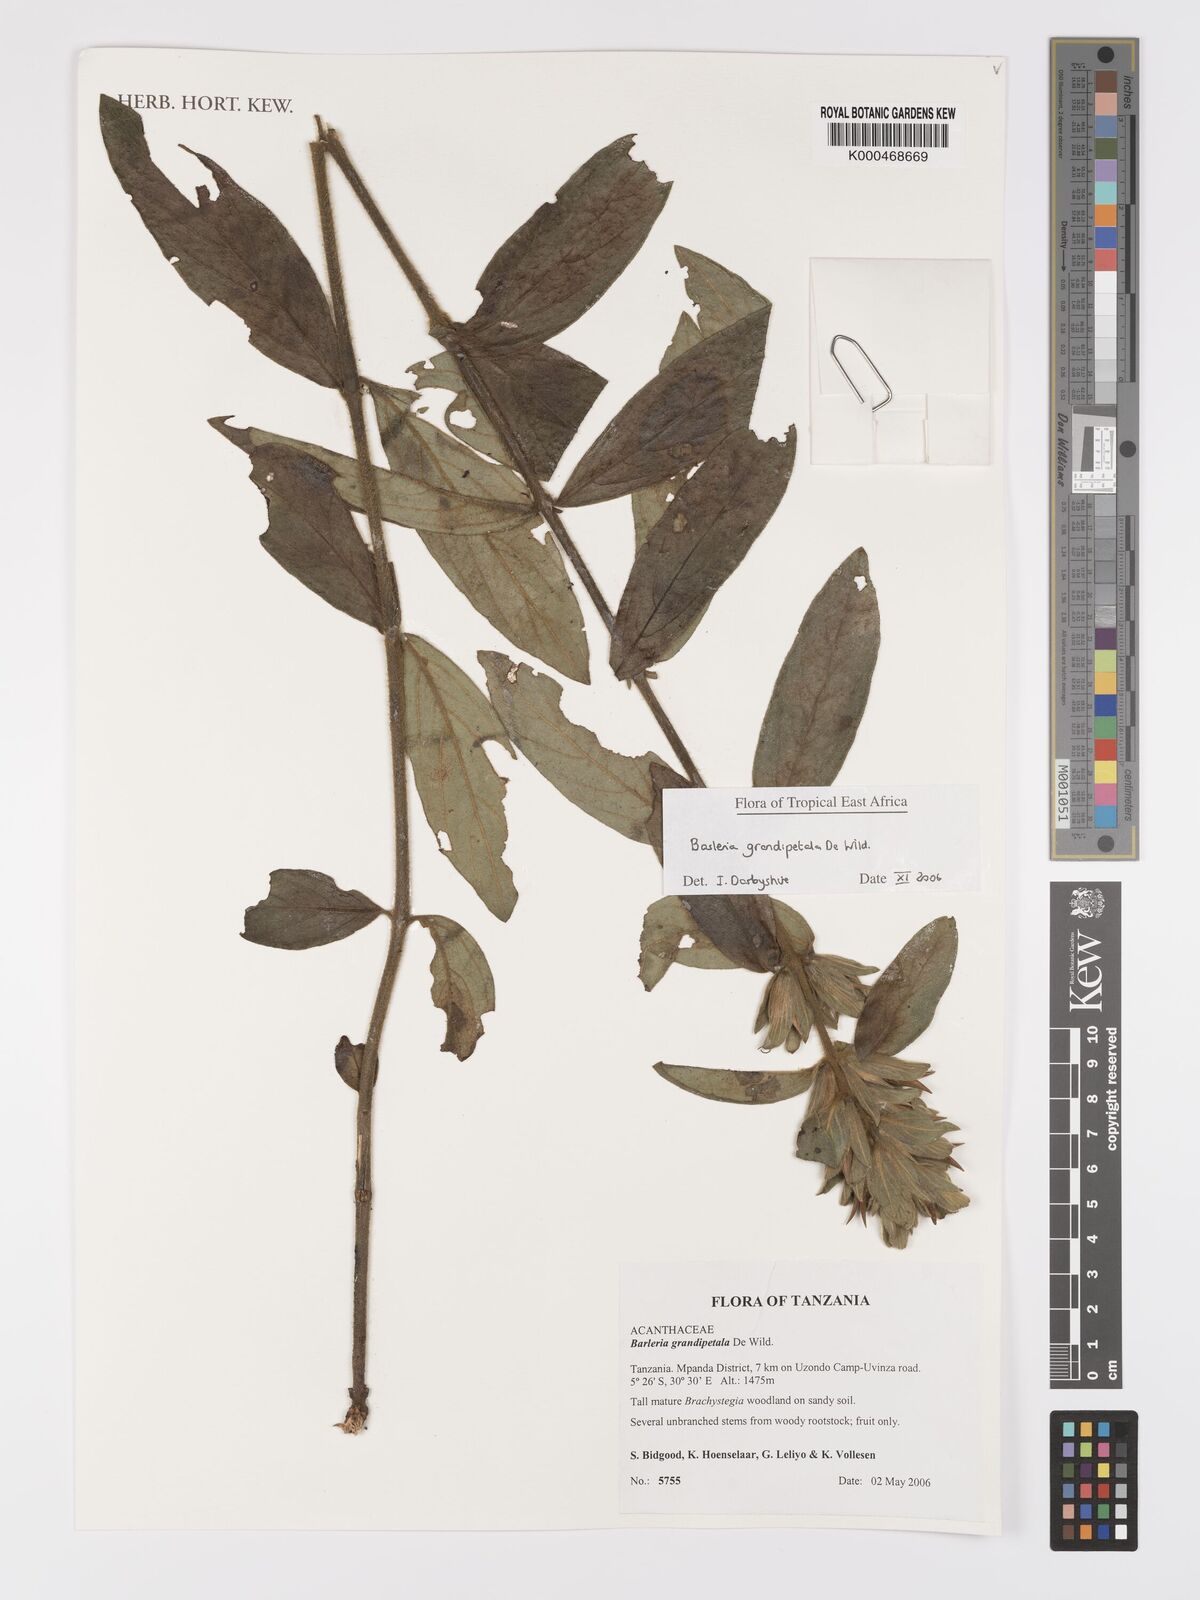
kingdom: Plantae
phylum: Tracheophyta
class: Magnoliopsida
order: Lamiales
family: Acanthaceae
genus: Barleria
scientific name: Barleria grandipetala
